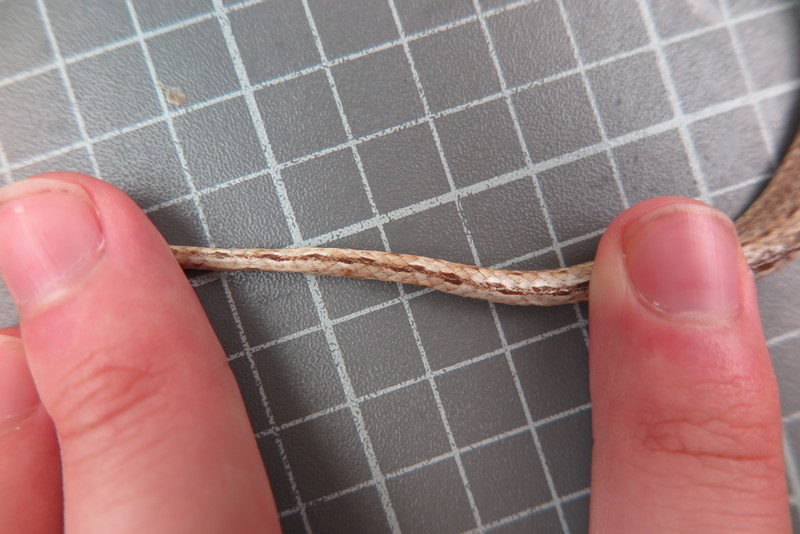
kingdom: Animalia
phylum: Chordata
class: Squamata
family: Psammophiidae
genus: Mimophis
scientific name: Mimophis
